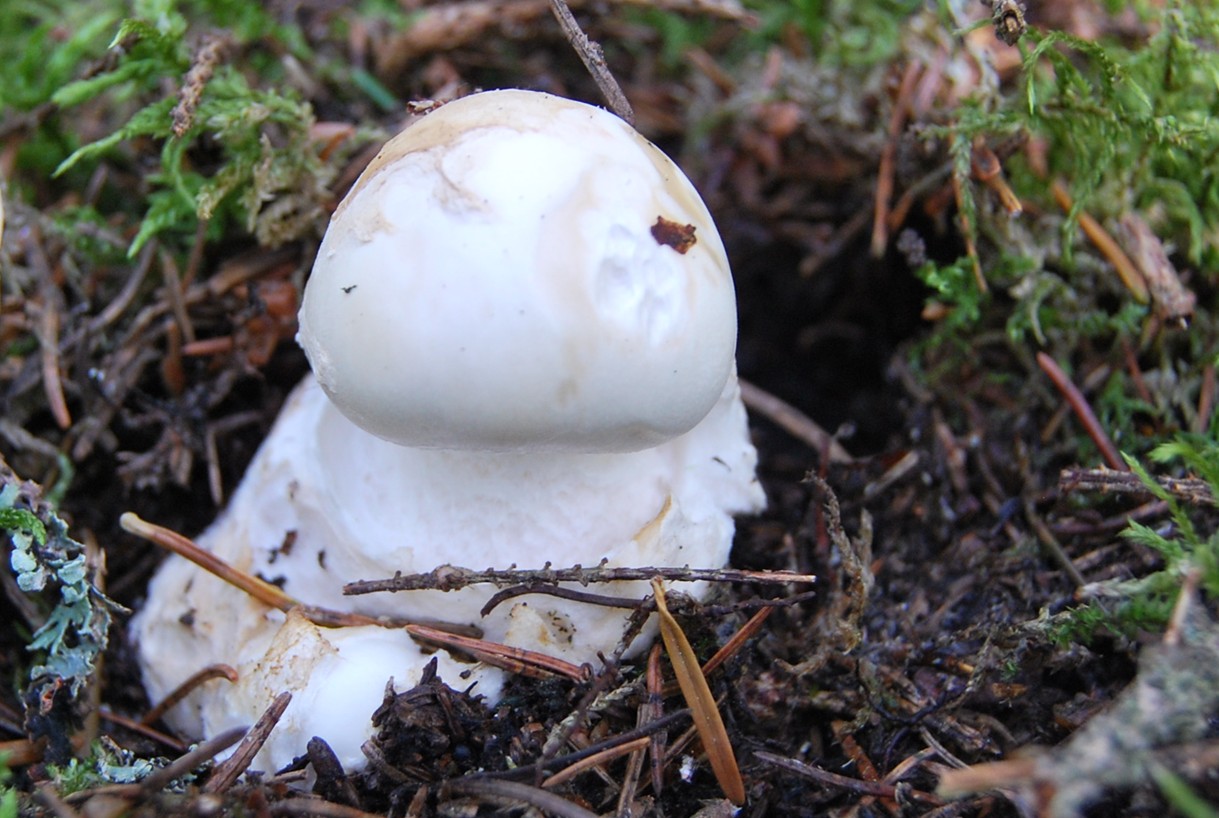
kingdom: Fungi
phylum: Basidiomycota
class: Agaricomycetes
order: Agaricales
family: Amanitaceae
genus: Amanita
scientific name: Amanita phalloides
